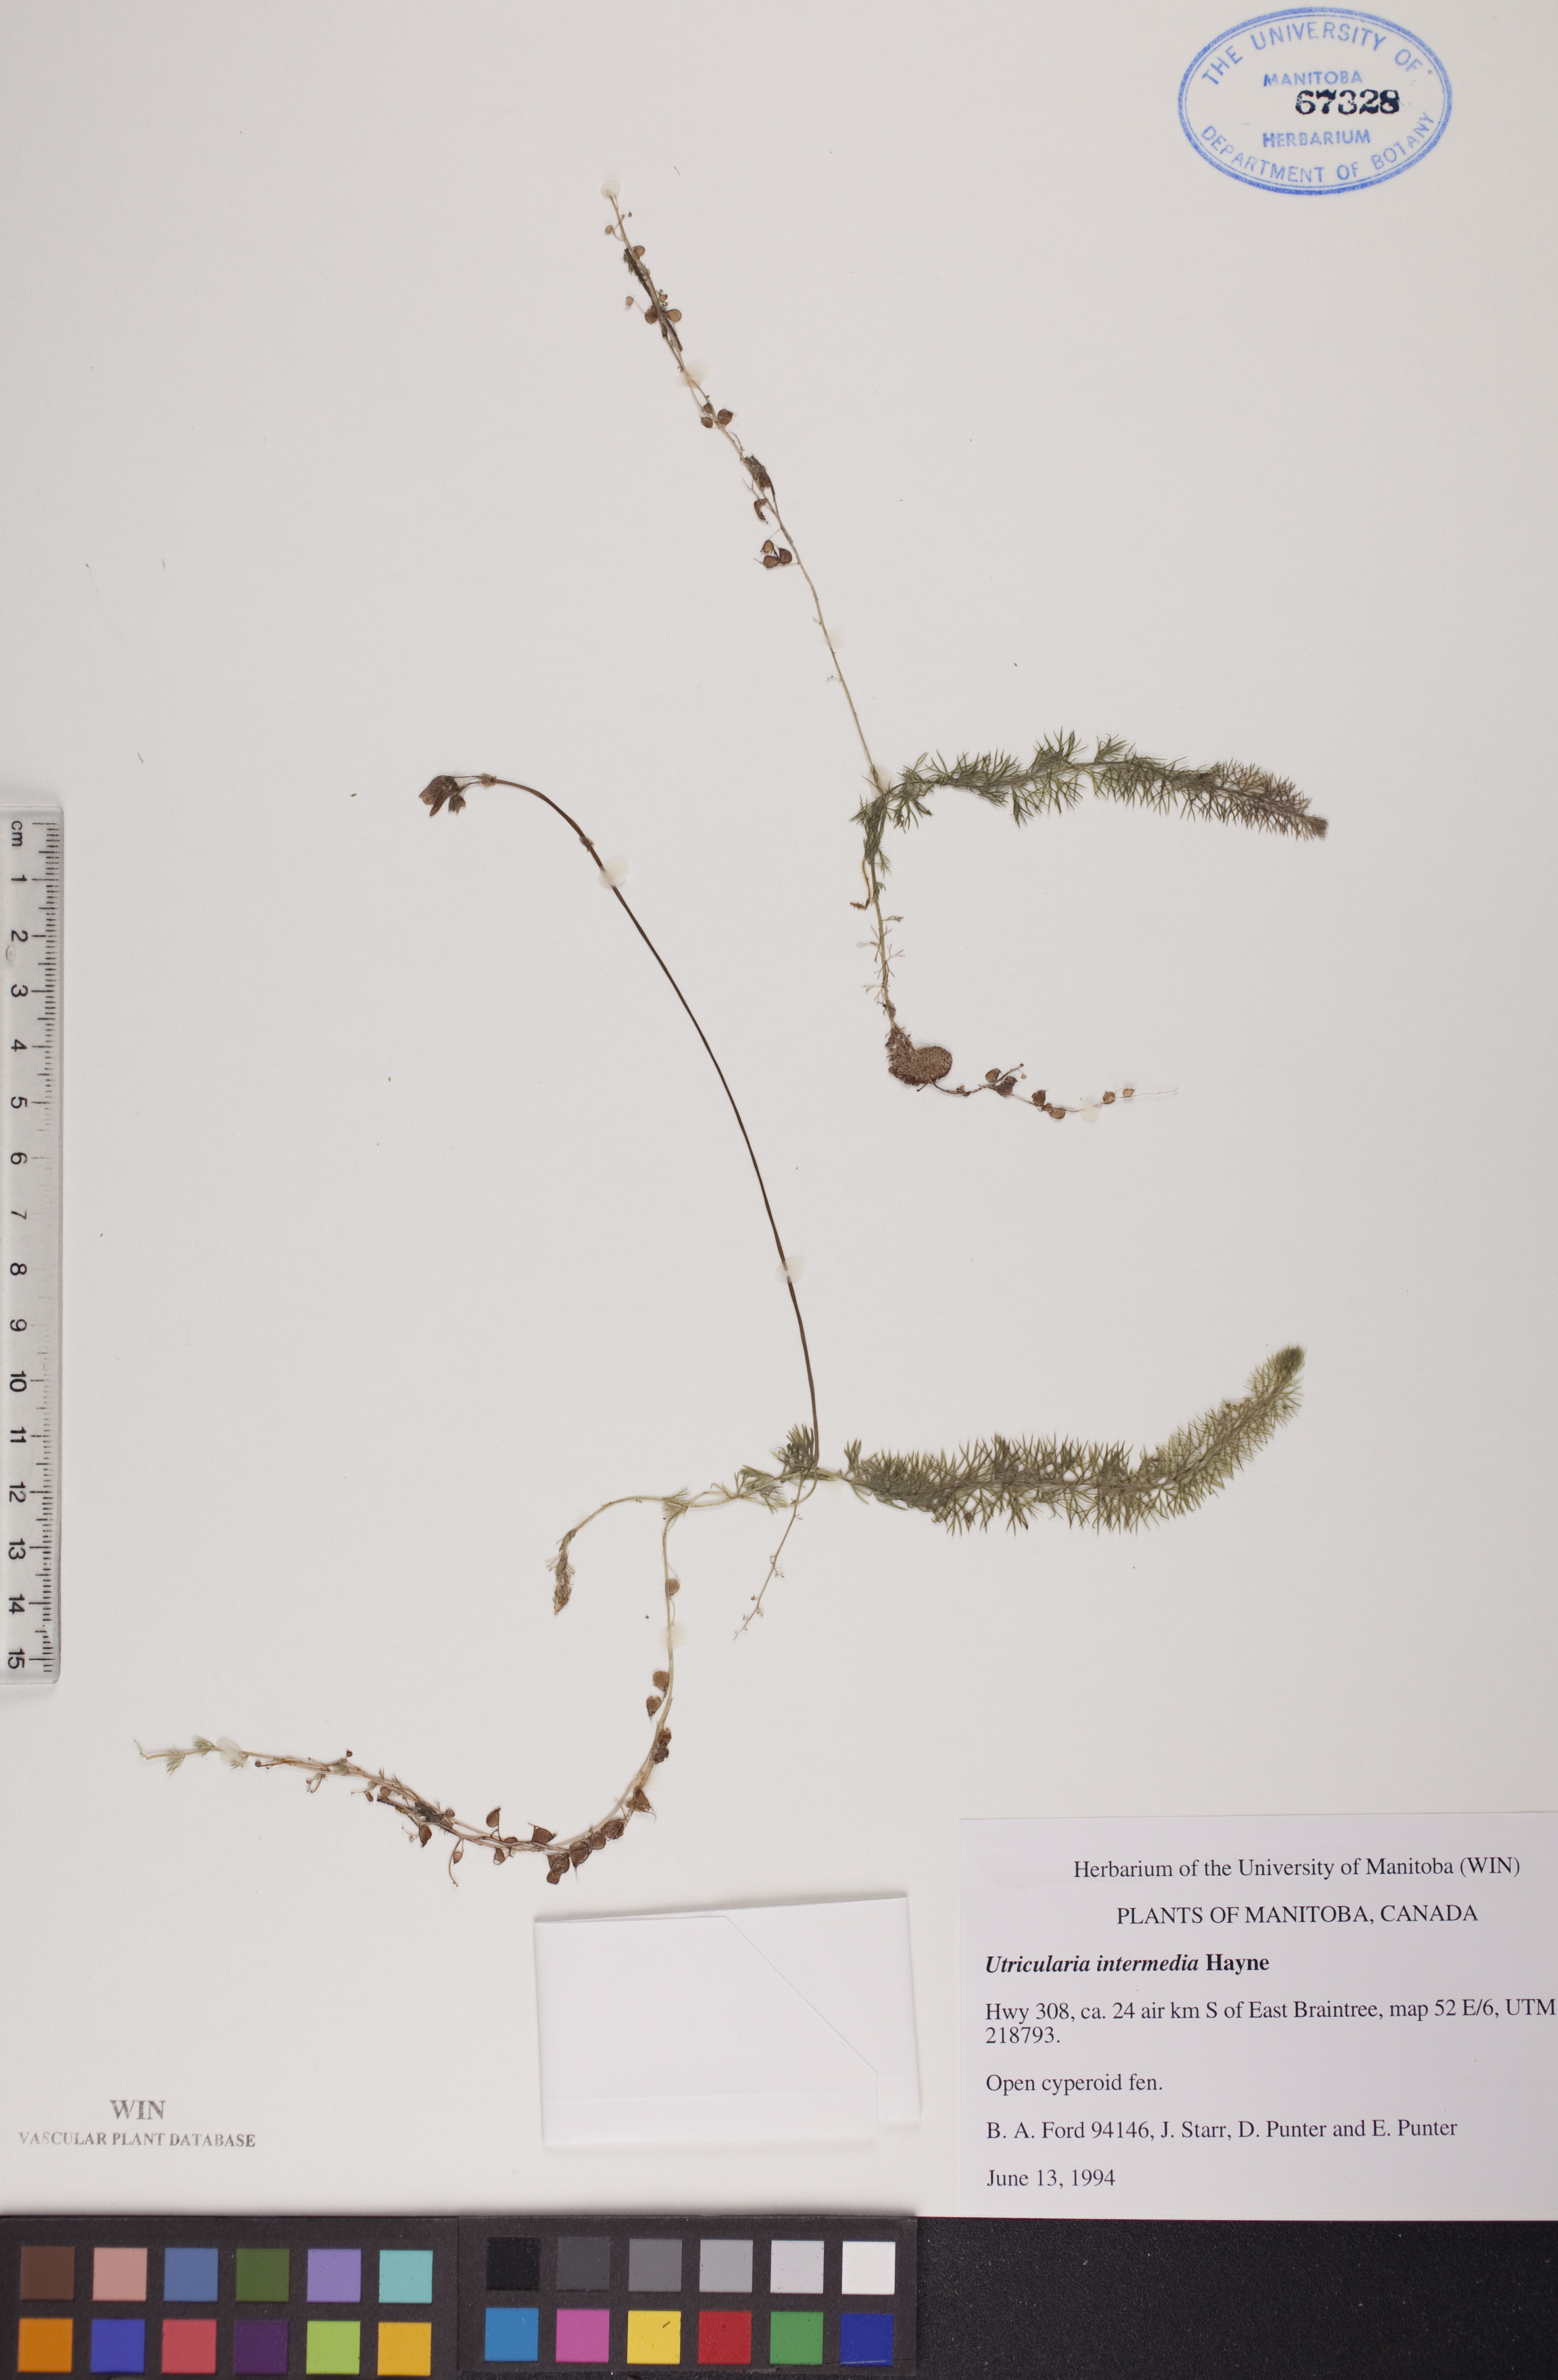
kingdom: Plantae
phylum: Tracheophyta
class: Magnoliopsida
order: Lamiales
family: Lentibulariaceae
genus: Utricularia
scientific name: Utricularia intermedia
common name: Intermediate bladderwort
